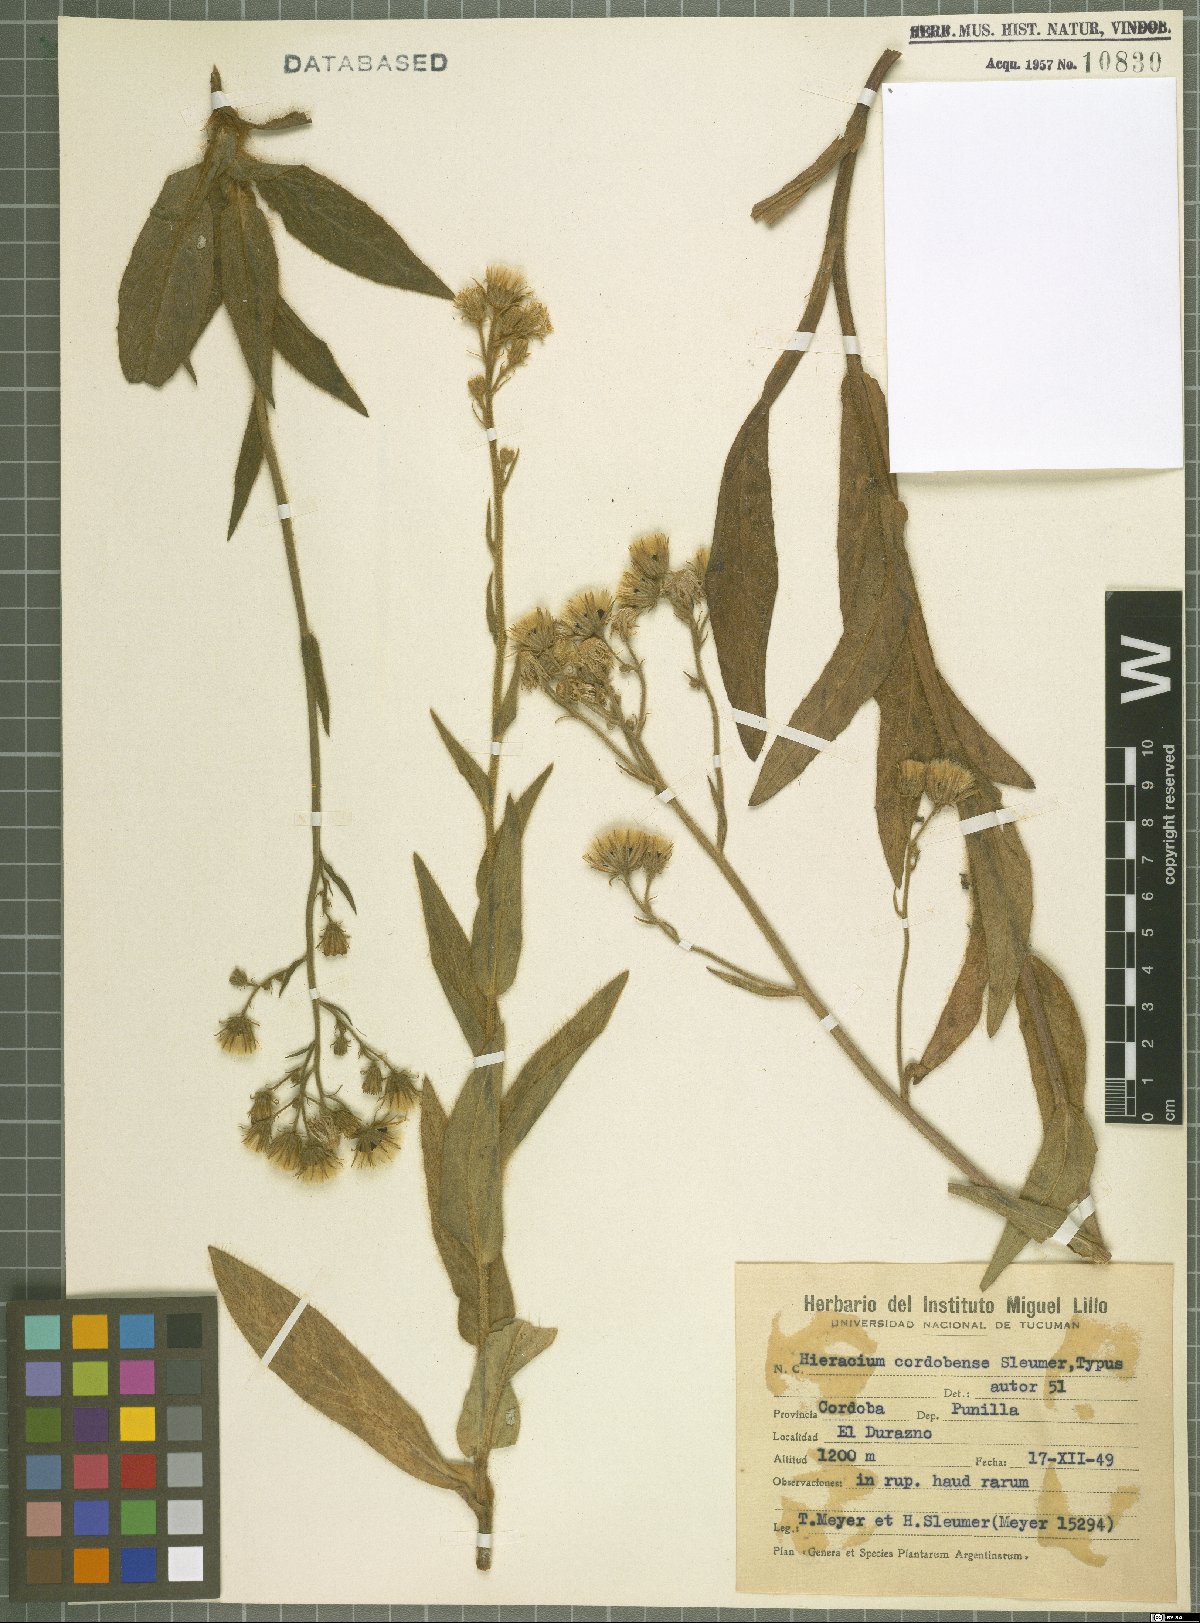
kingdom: Plantae
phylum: Tracheophyta
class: Magnoliopsida
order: Asterales
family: Asteraceae
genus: Hieracium
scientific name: Hieracium cordobense
